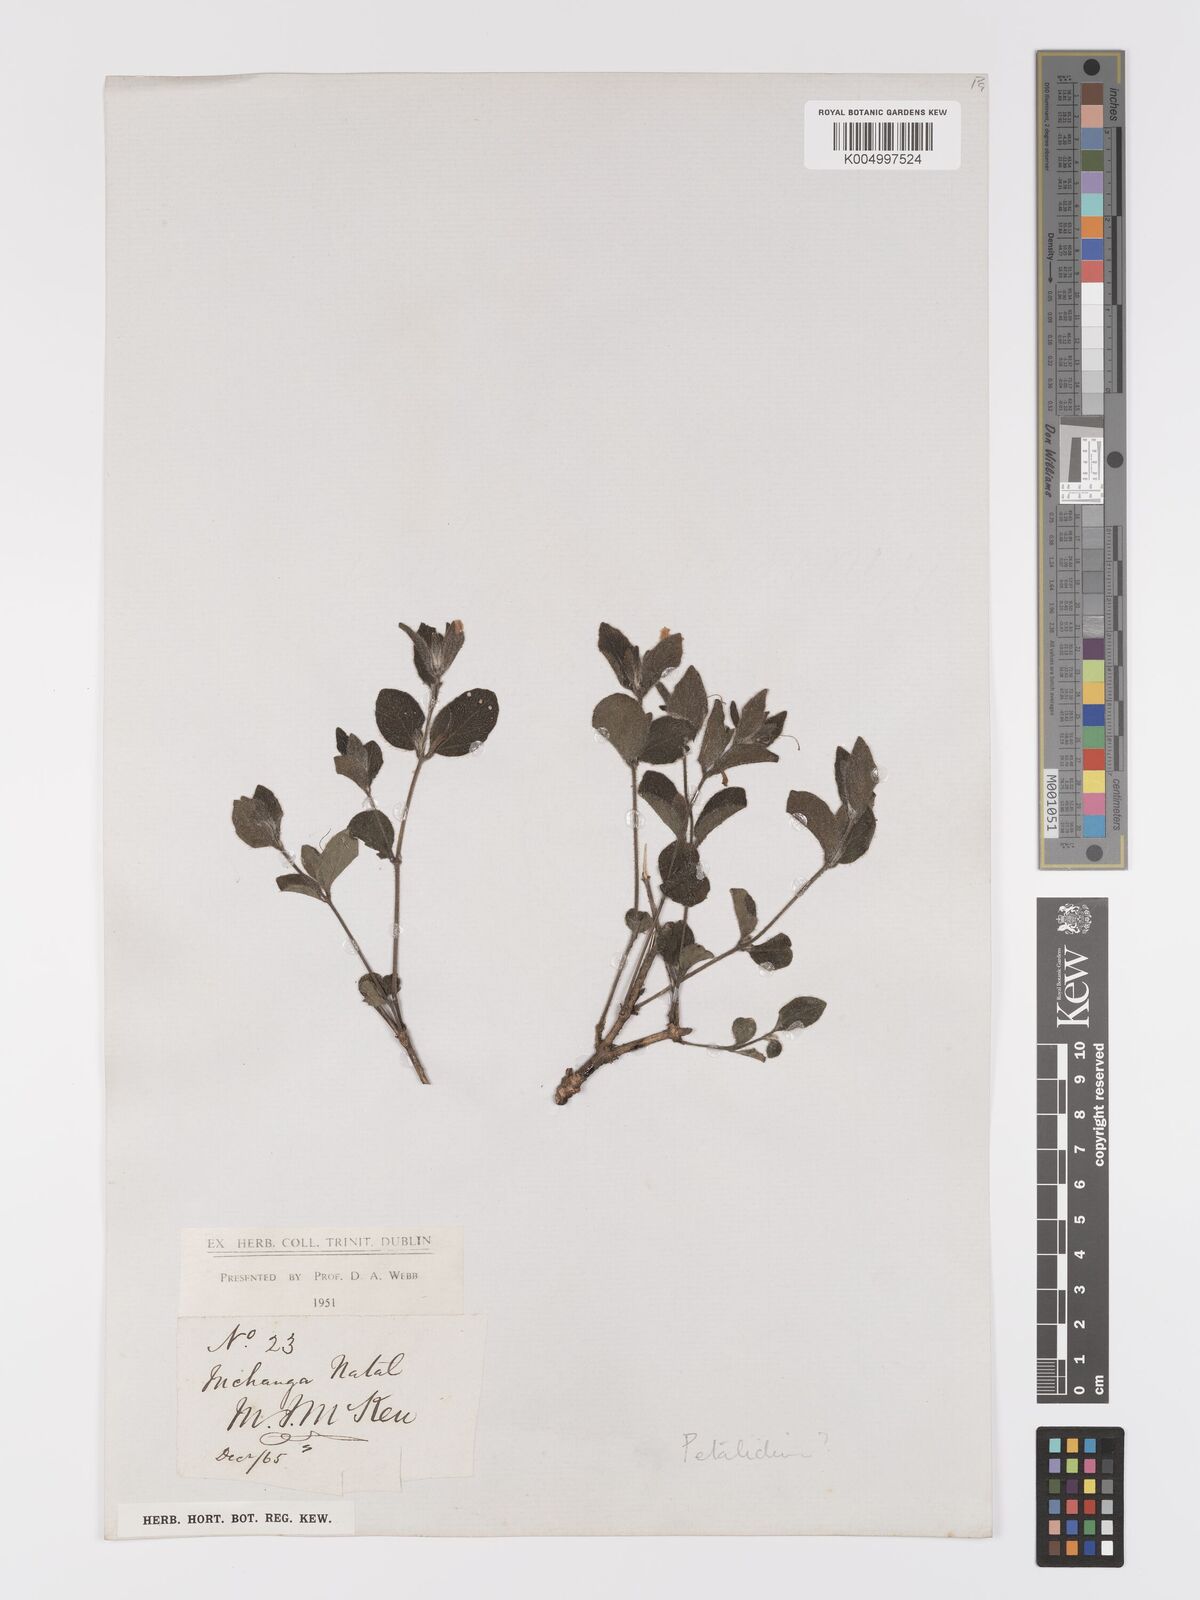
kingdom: Plantae
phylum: Tracheophyta
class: Magnoliopsida
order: Lamiales
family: Acanthaceae
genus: Ruellia
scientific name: Ruellia
